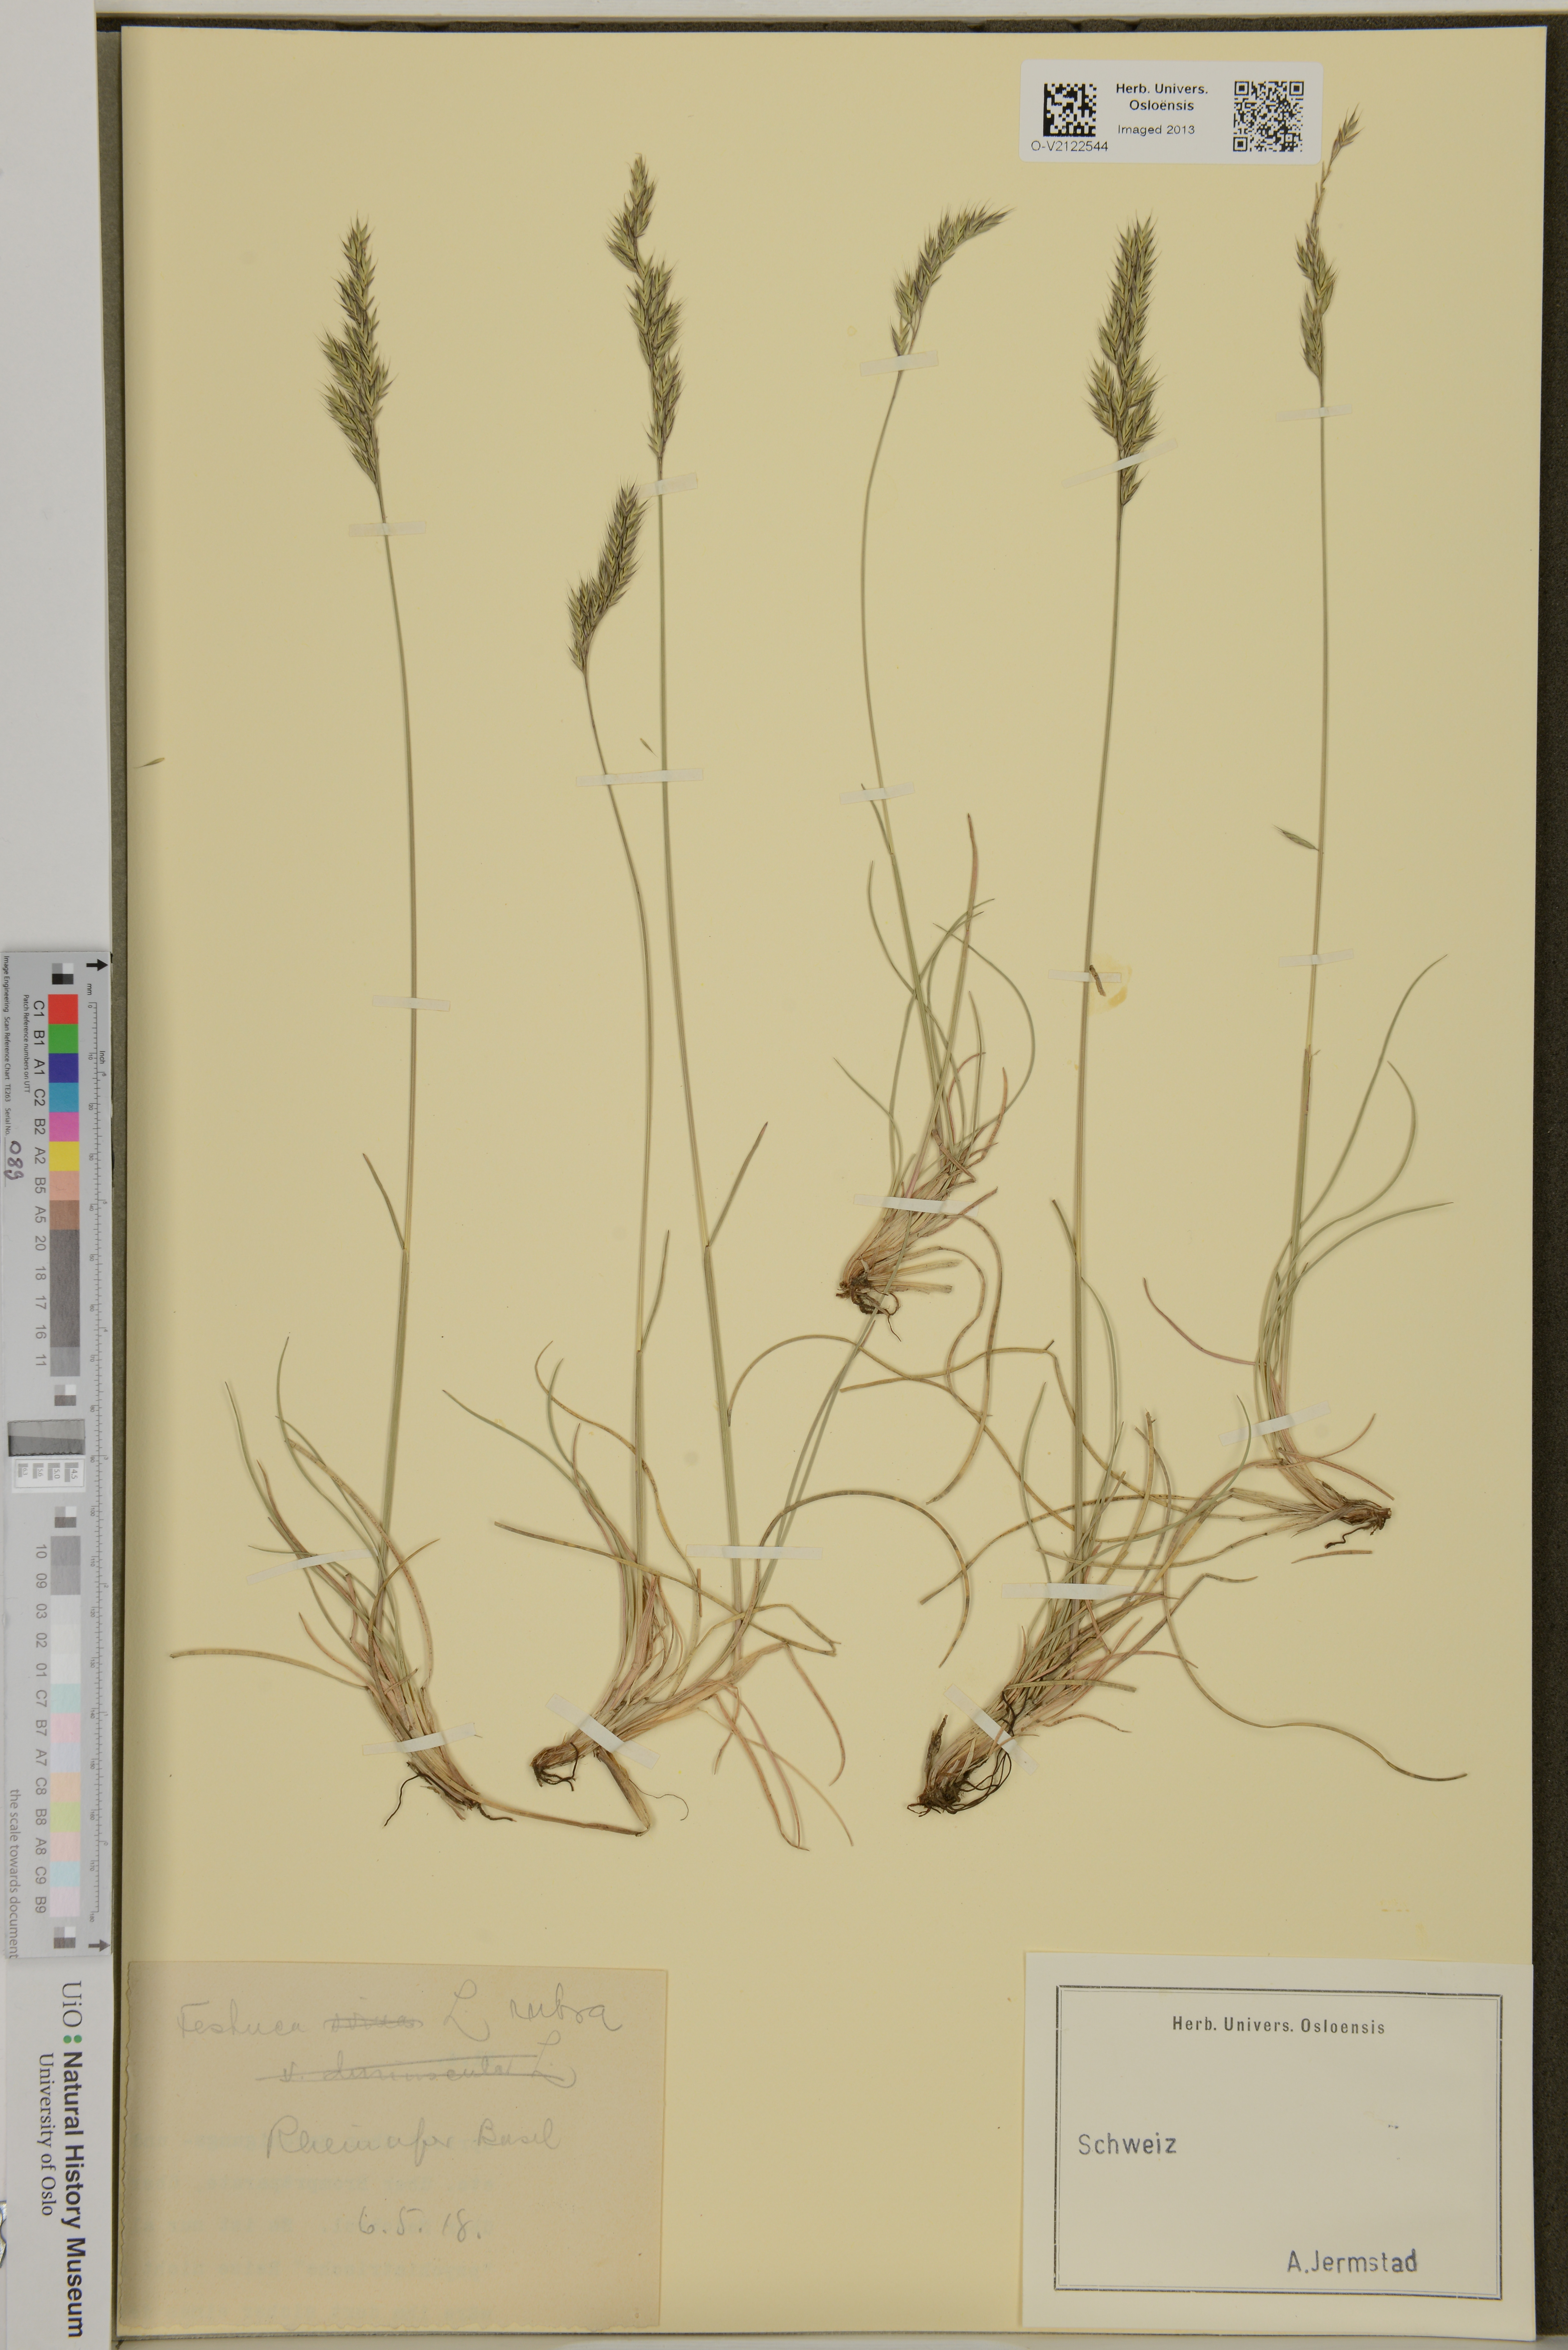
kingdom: Plantae
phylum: Tracheophyta
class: Liliopsida
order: Poales
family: Poaceae
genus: Festuca
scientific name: Festuca rubra
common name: Red fescue
